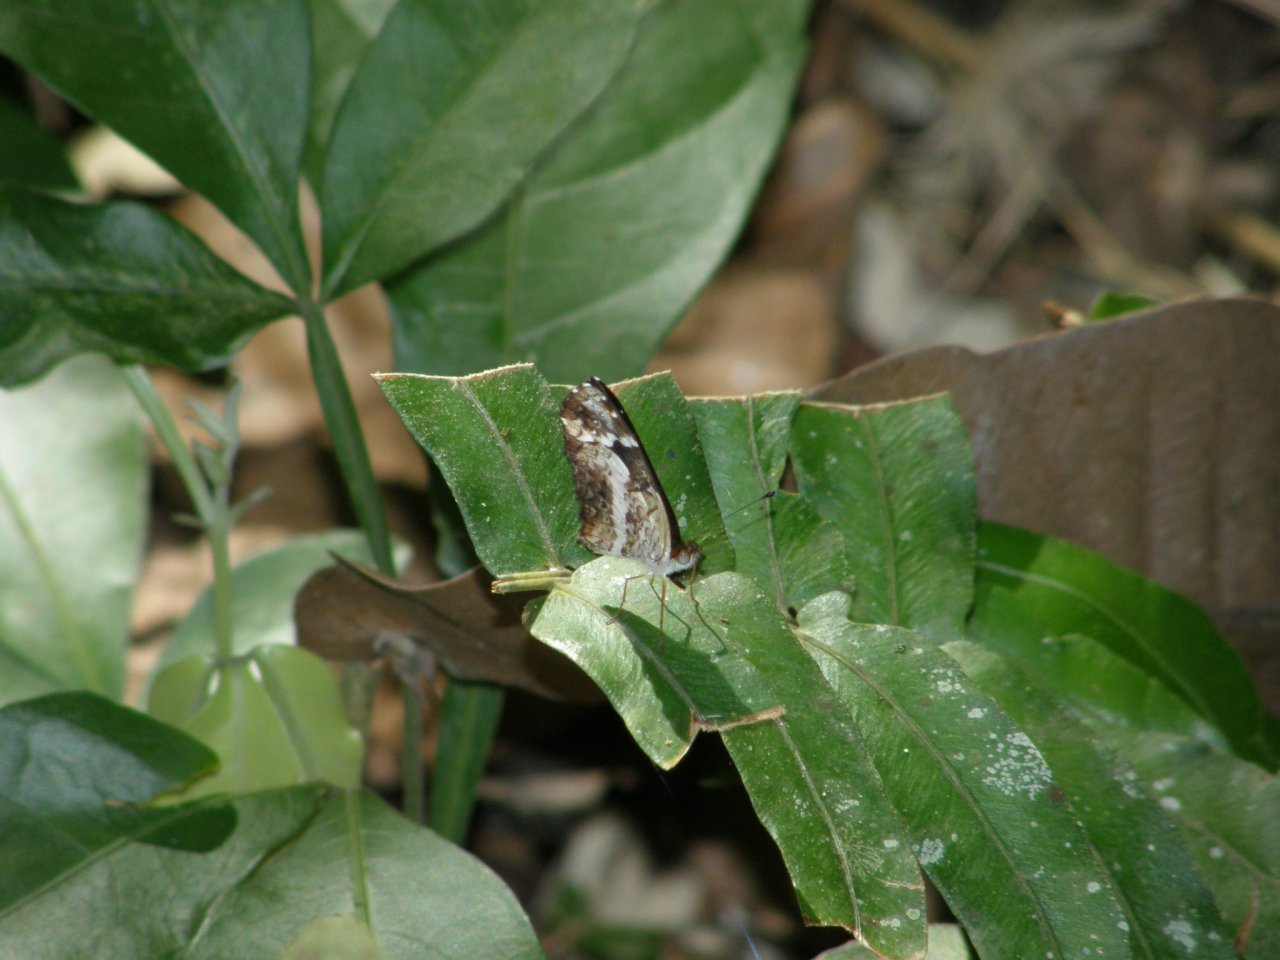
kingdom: Animalia
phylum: Arthropoda
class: Insecta
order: Lepidoptera
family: Nymphalidae
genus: Castilia
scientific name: Castilia griseobasalis
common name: Gray-based Crescent
